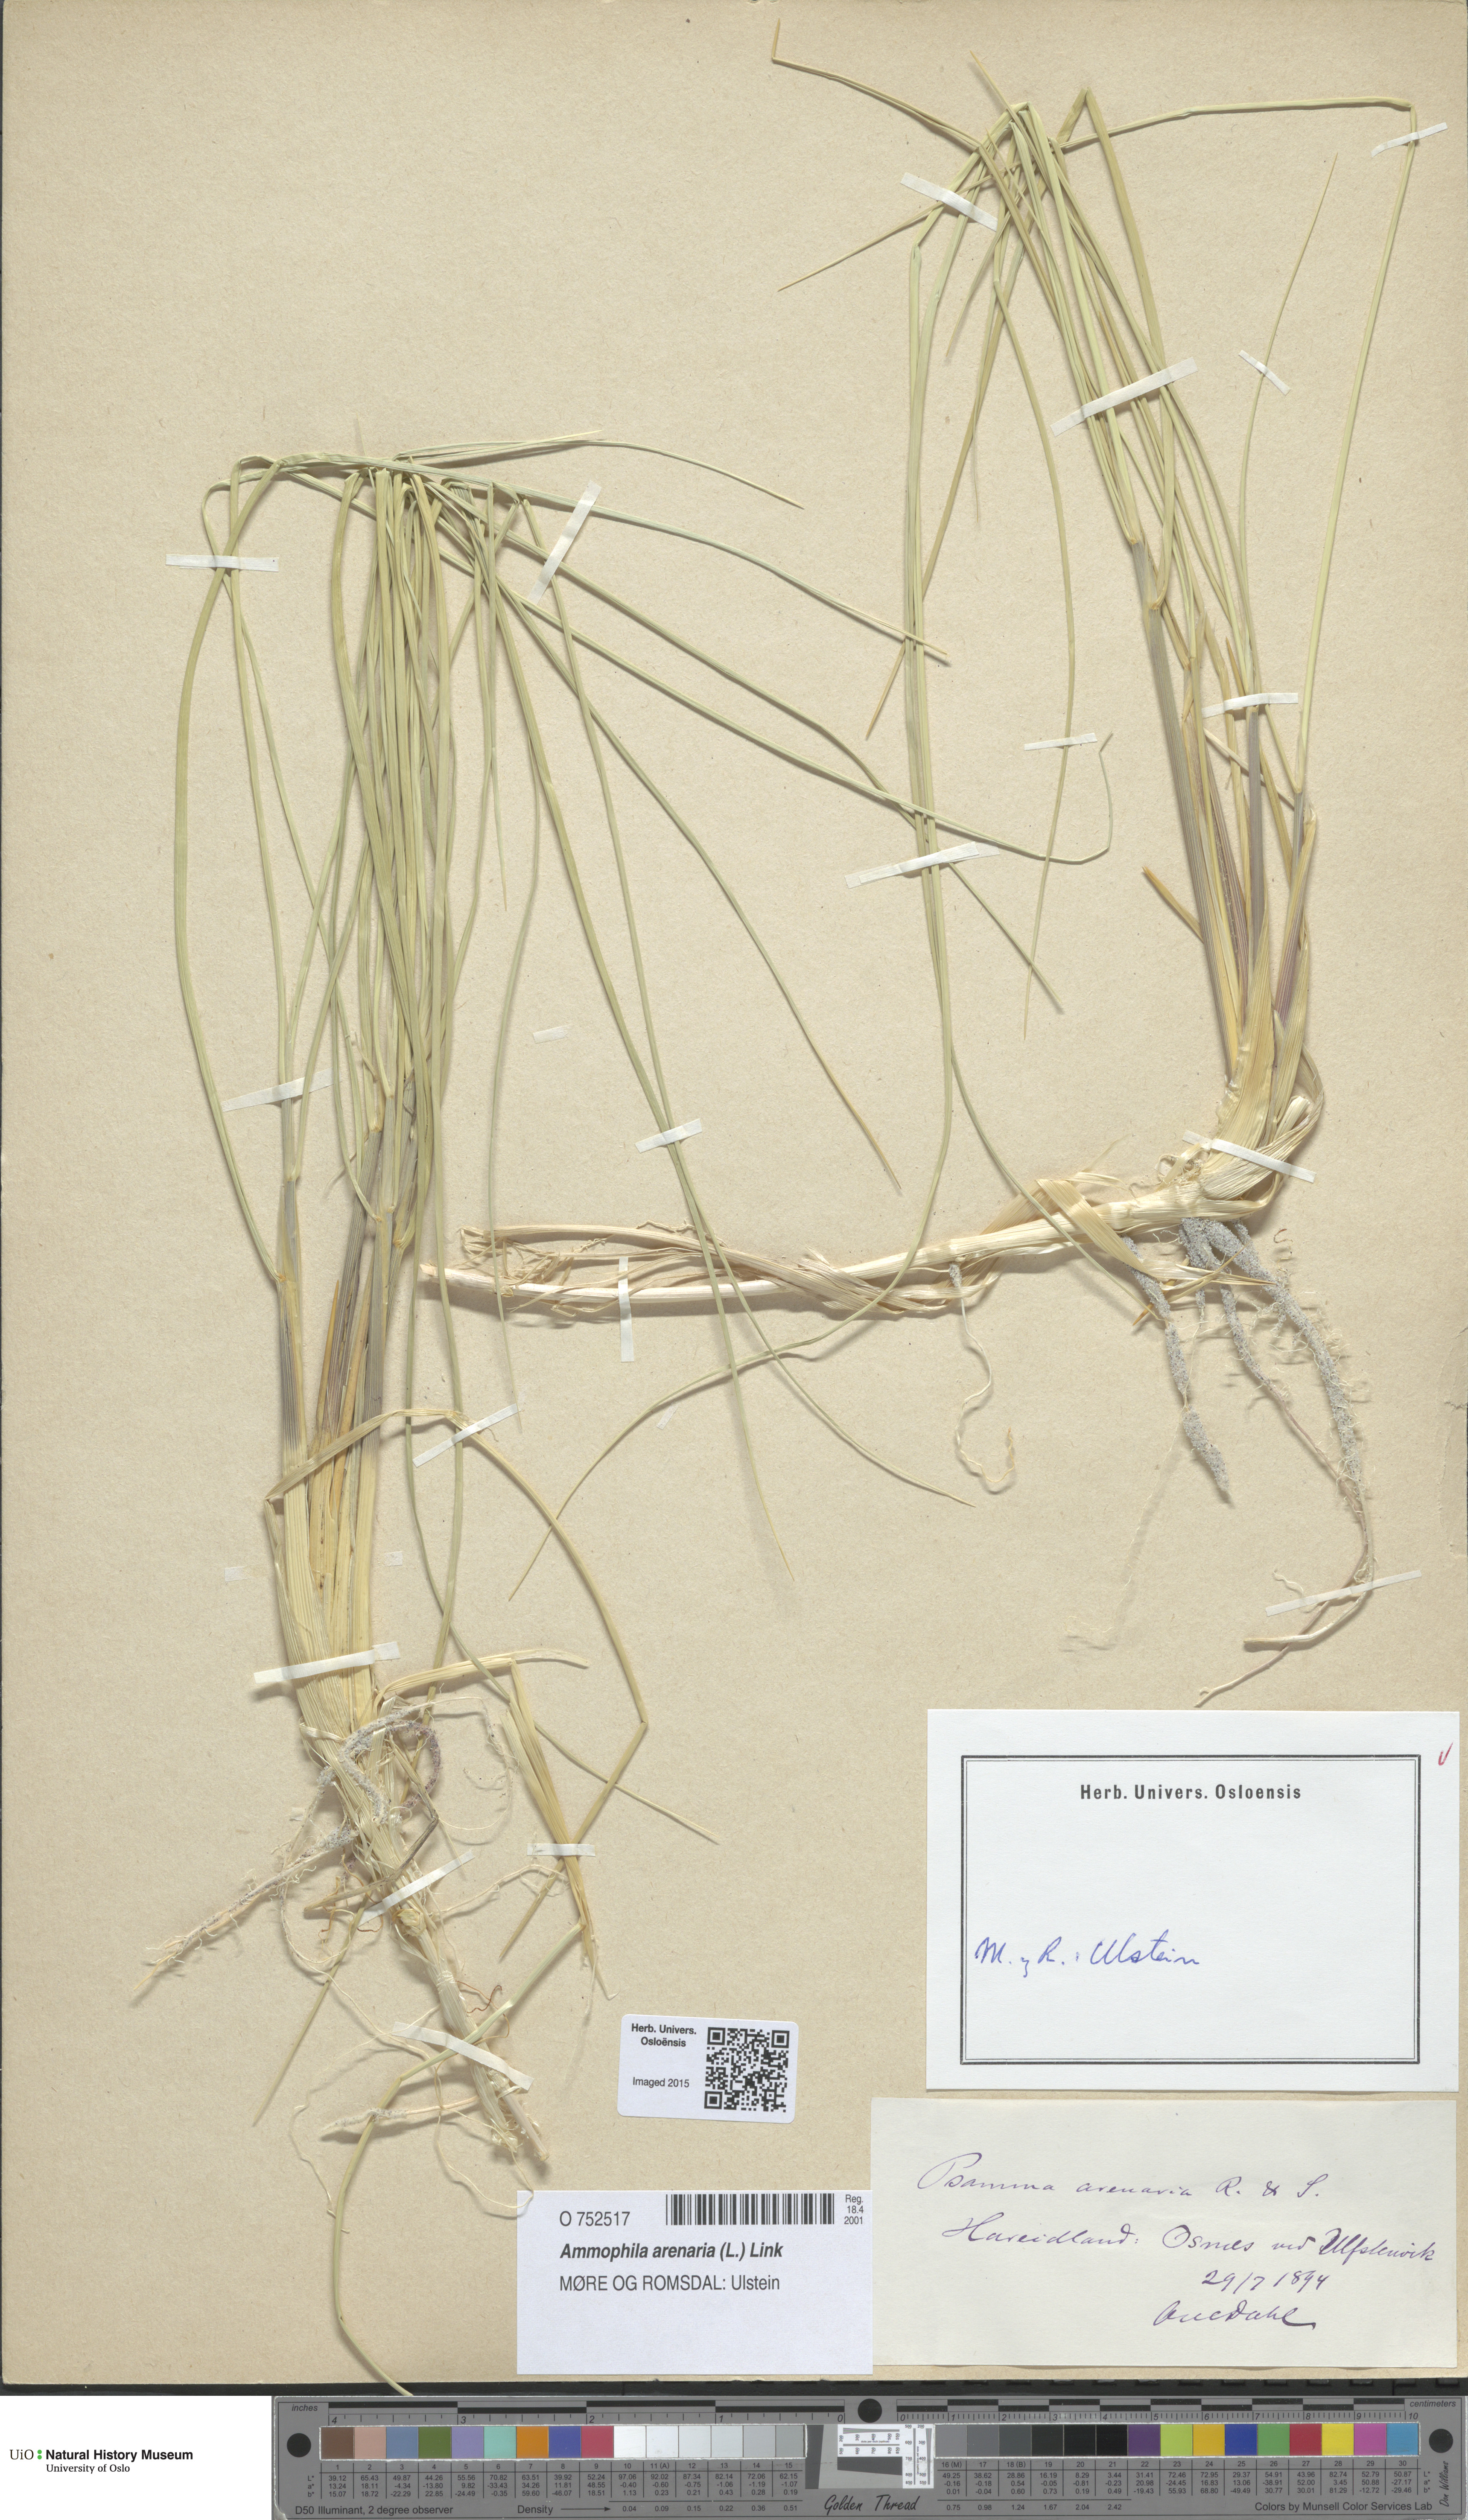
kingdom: Plantae
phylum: Tracheophyta
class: Liliopsida
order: Poales
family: Poaceae
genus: Calamagrostis
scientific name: Calamagrostis arenaria
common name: European beachgrass
